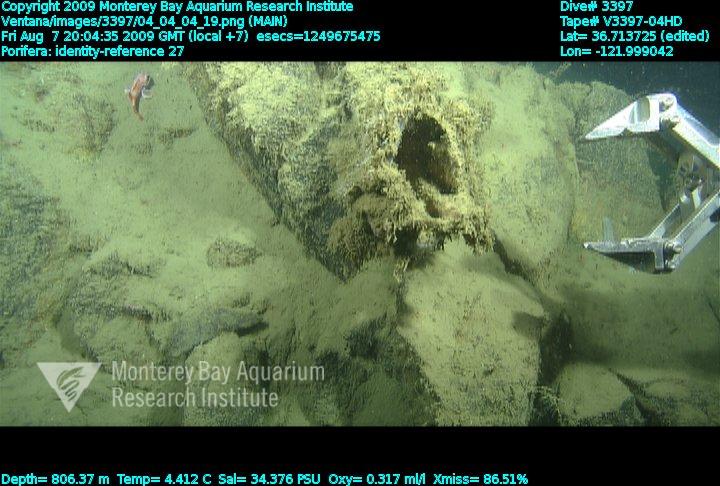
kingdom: Animalia
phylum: Porifera
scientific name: Porifera
